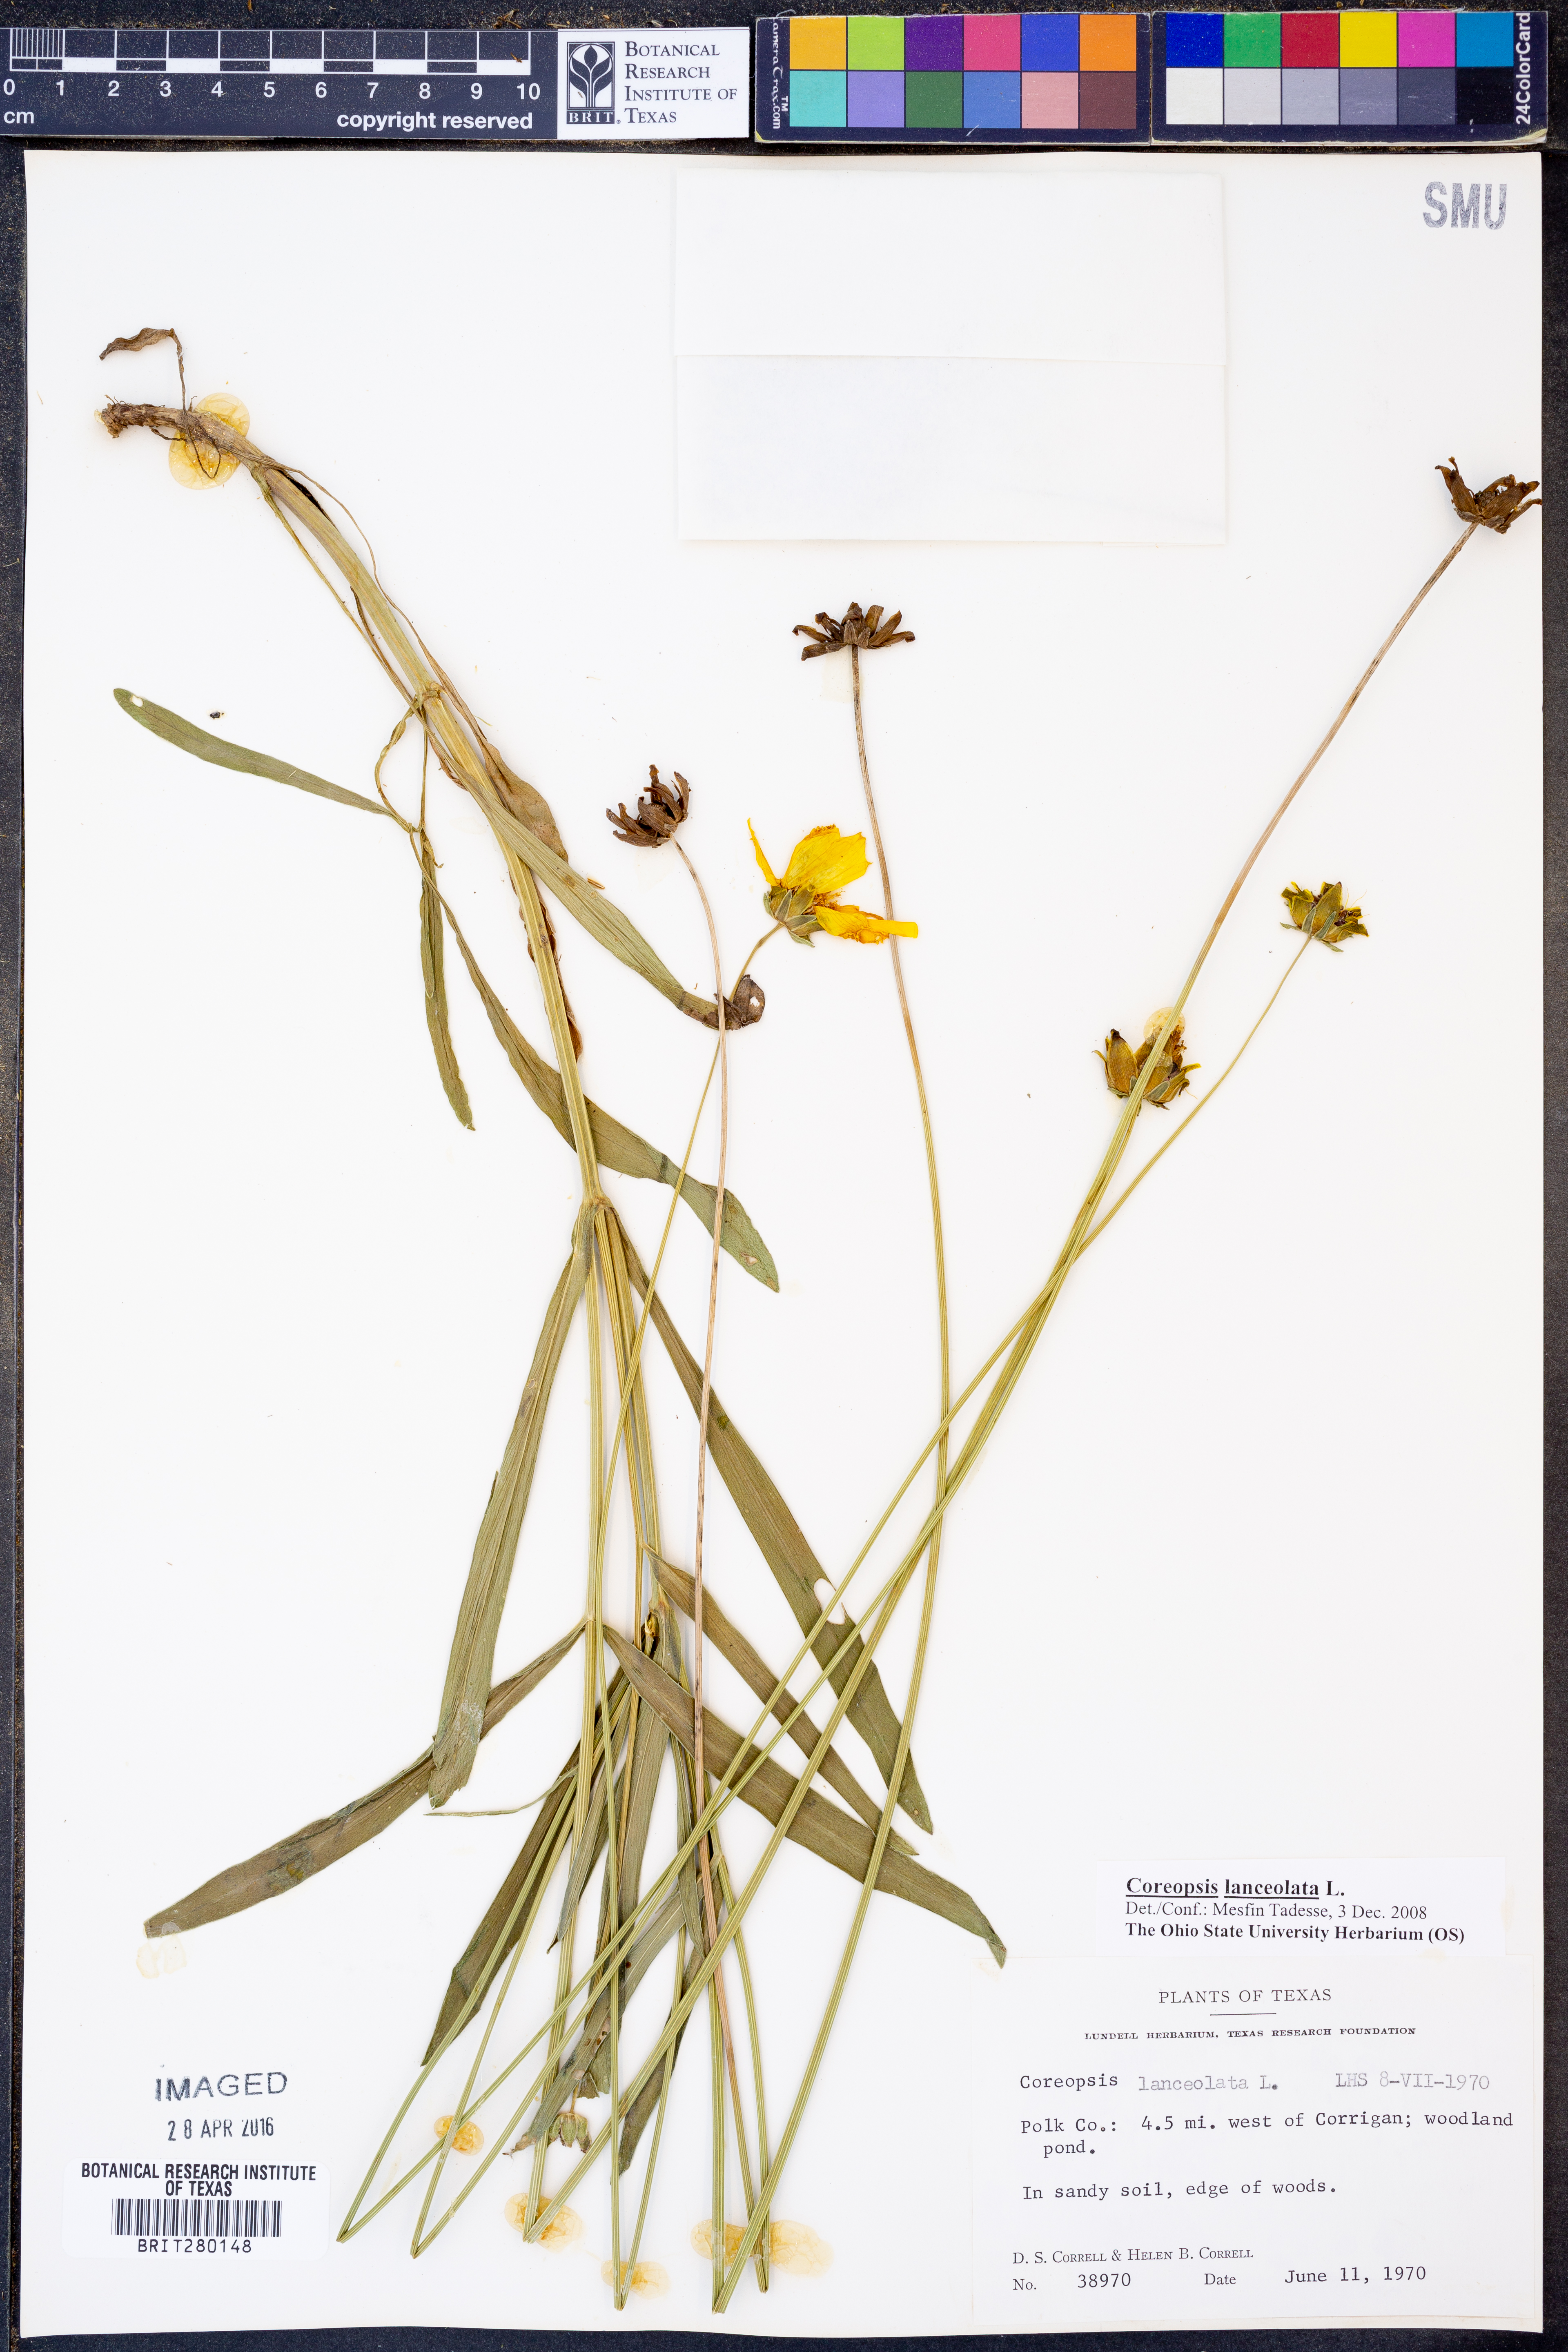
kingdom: Plantae
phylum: Tracheophyta
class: Magnoliopsida
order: Asterales
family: Asteraceae
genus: Coreopsis
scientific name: Coreopsis lanceolata
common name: Garden coreopsis
